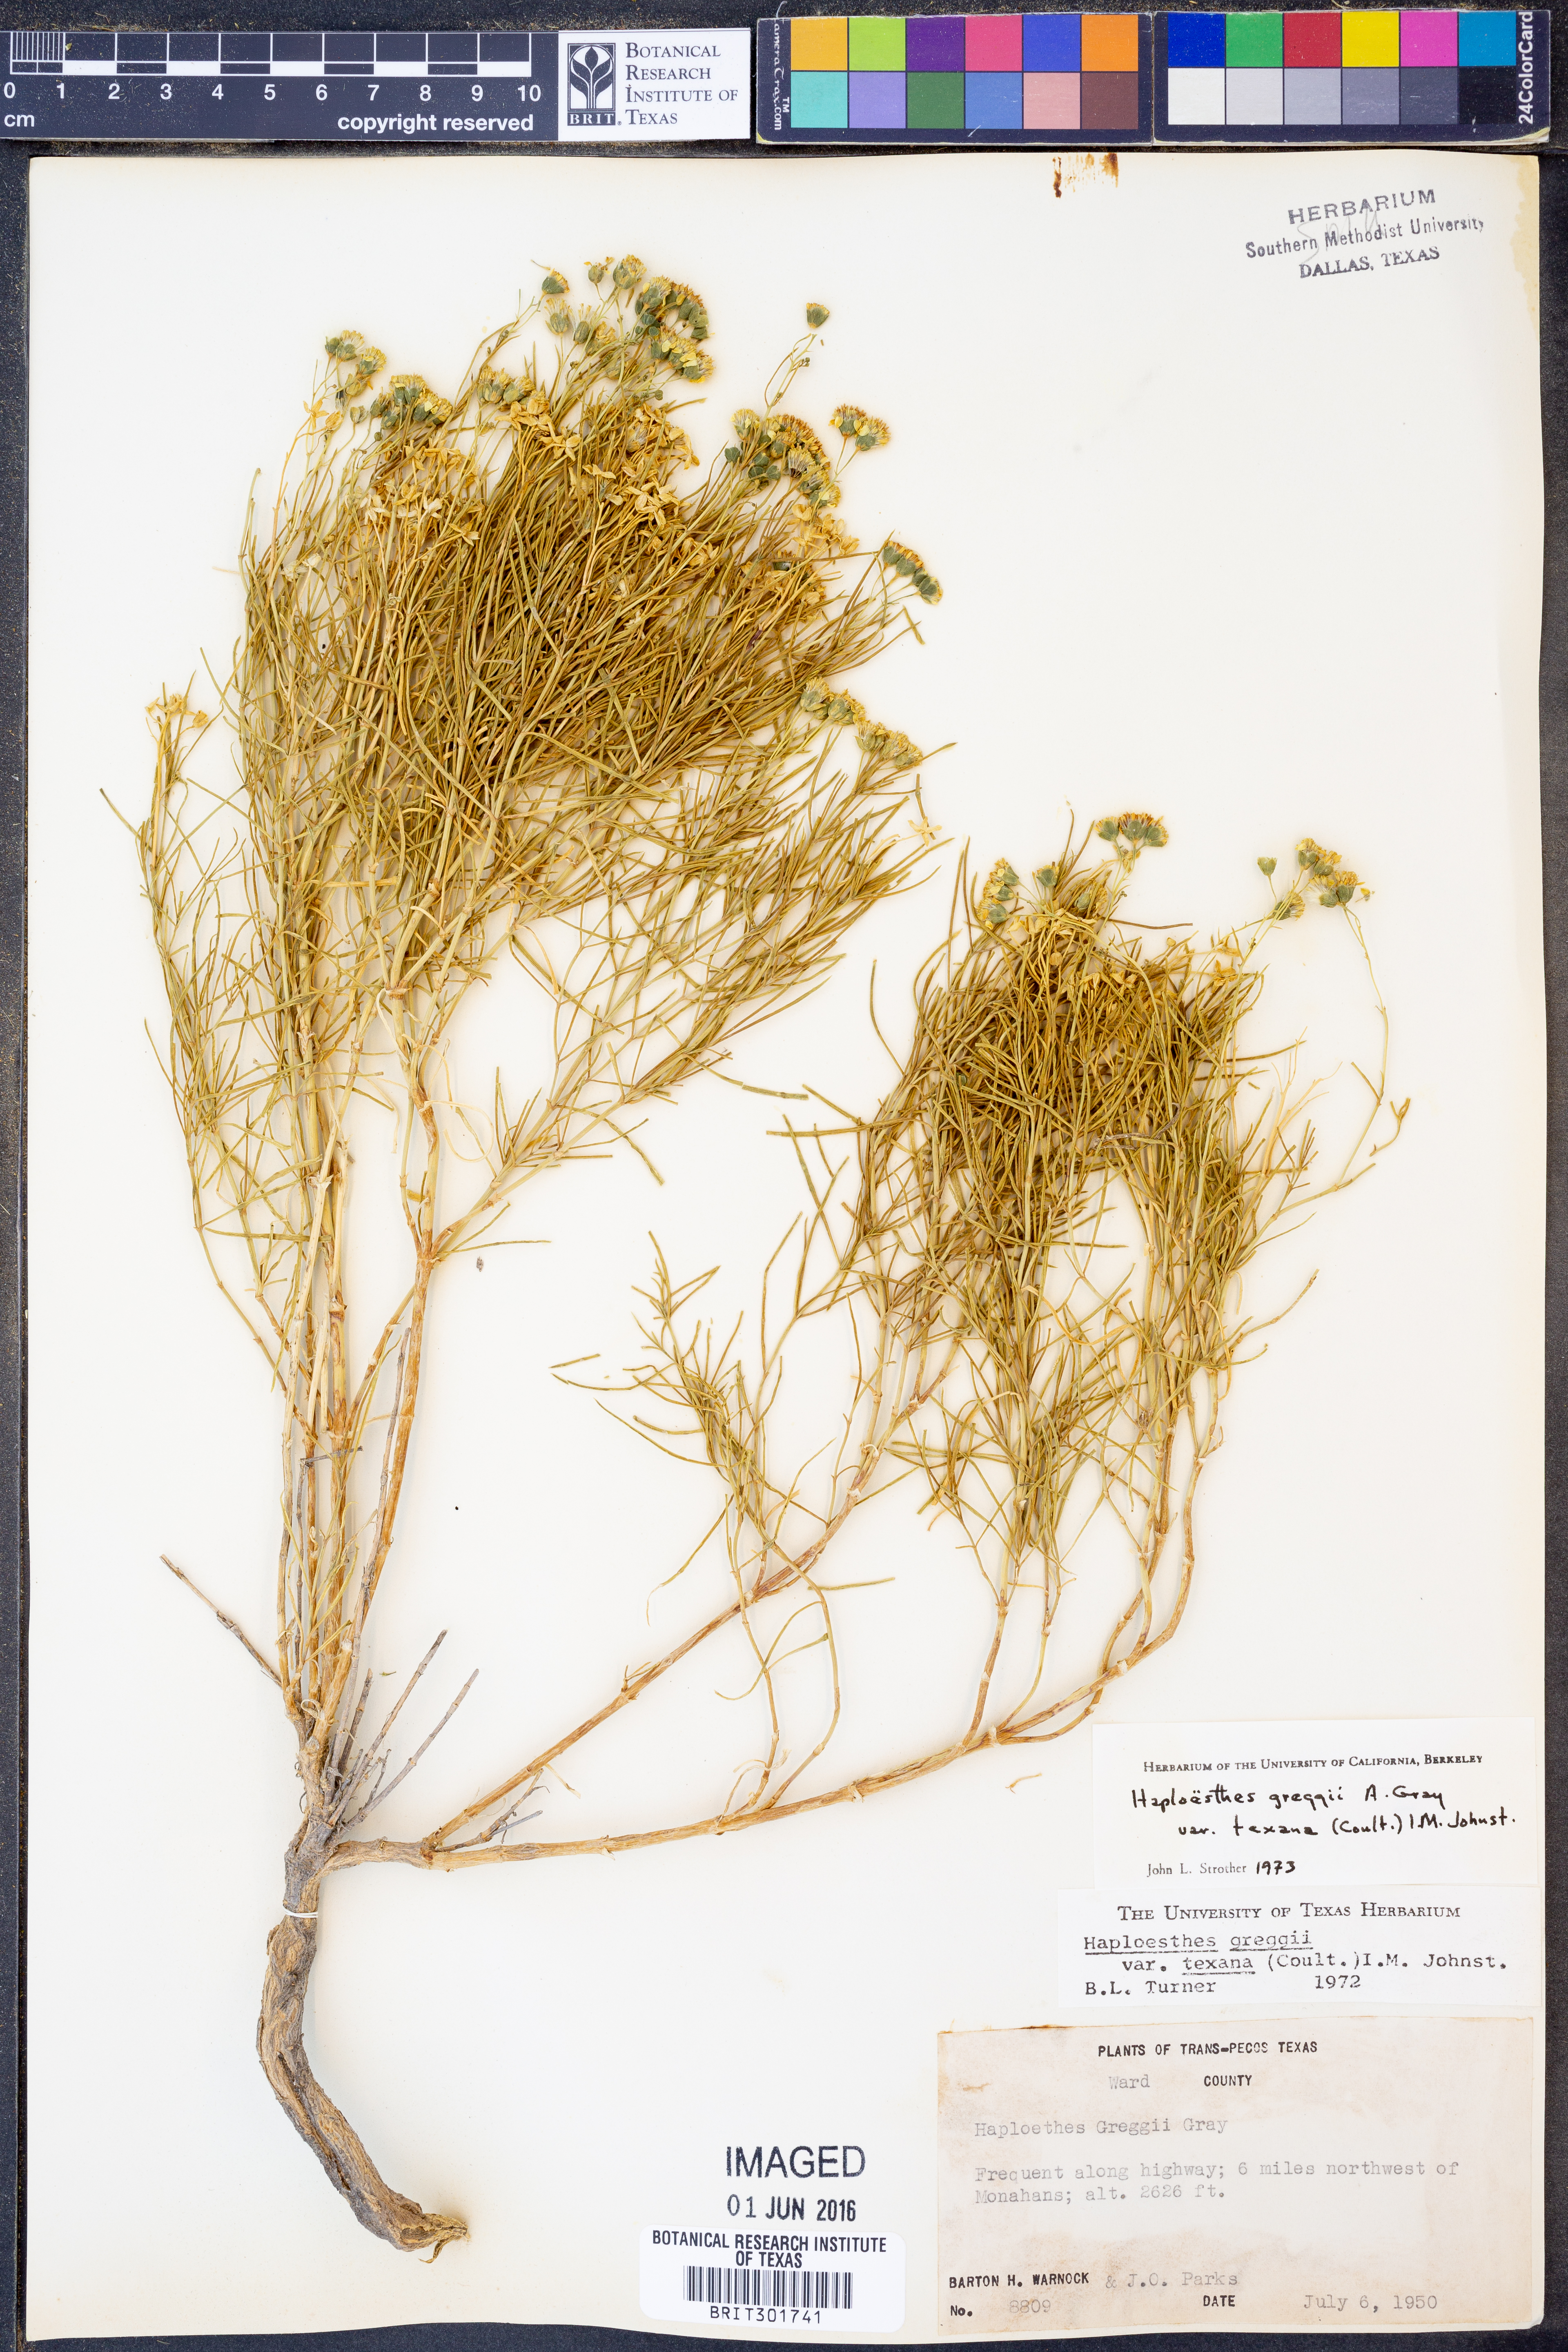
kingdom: Plantae
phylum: Tracheophyta
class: Magnoliopsida
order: Asterales
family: Asteraceae
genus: Haploesthes
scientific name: Haploesthes greggii
